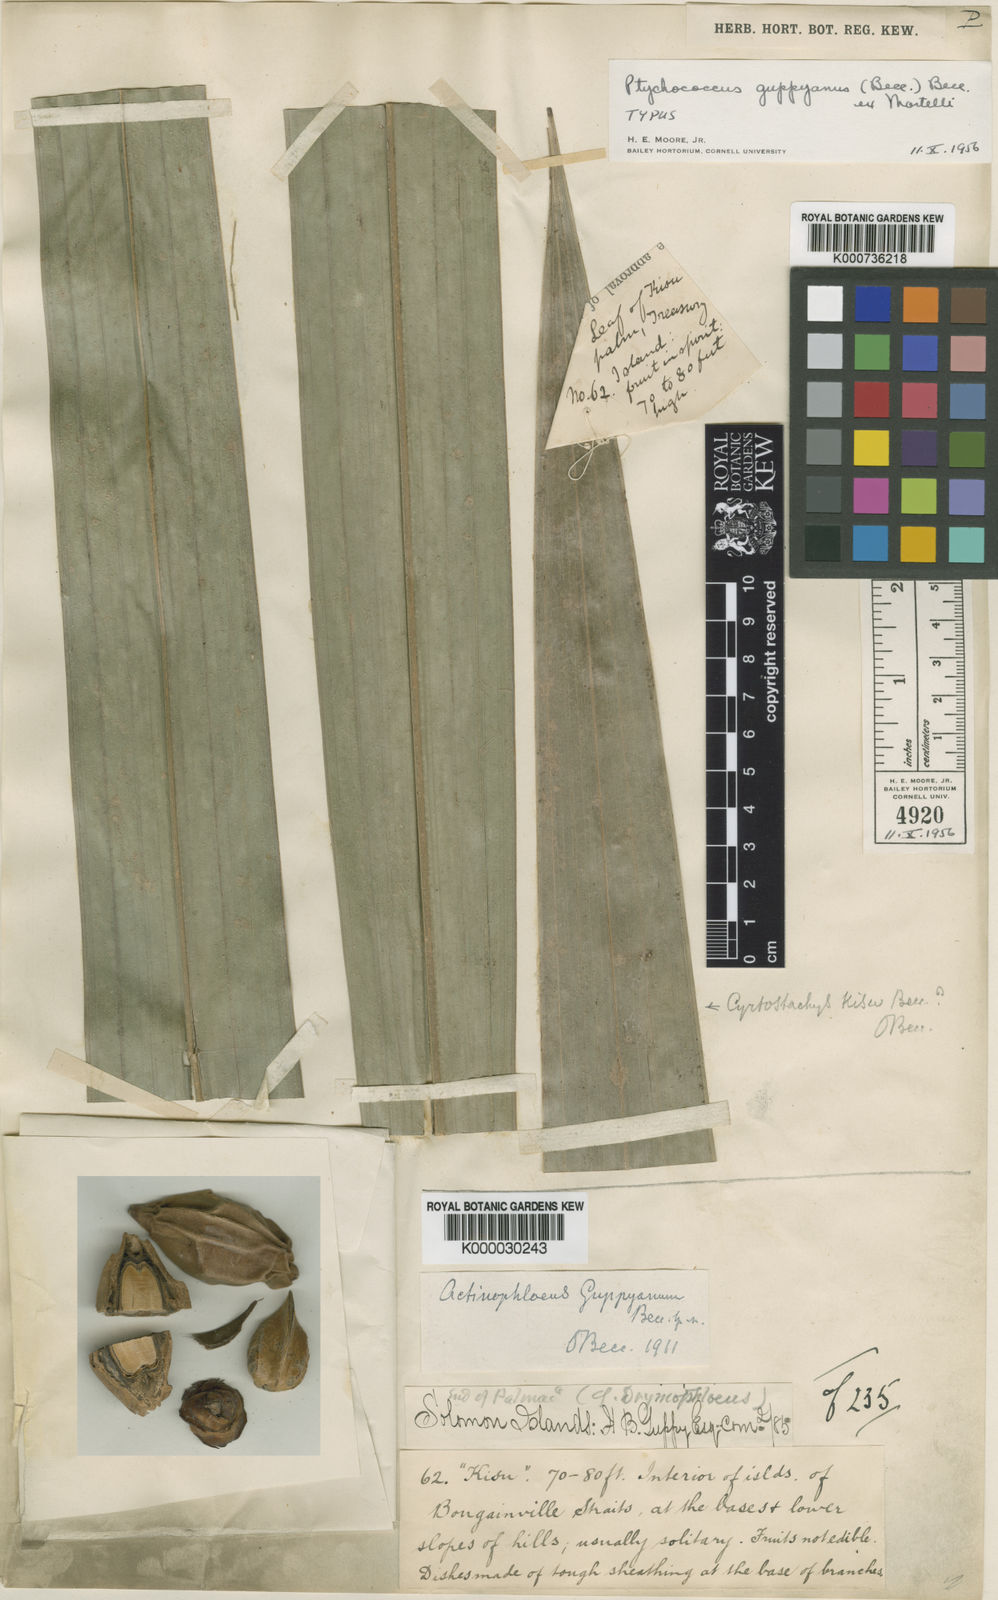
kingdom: Plantae
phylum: Tracheophyta
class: Liliopsida
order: Arecales
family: Arecaceae
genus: Ptychococcus
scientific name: Ptychococcus
